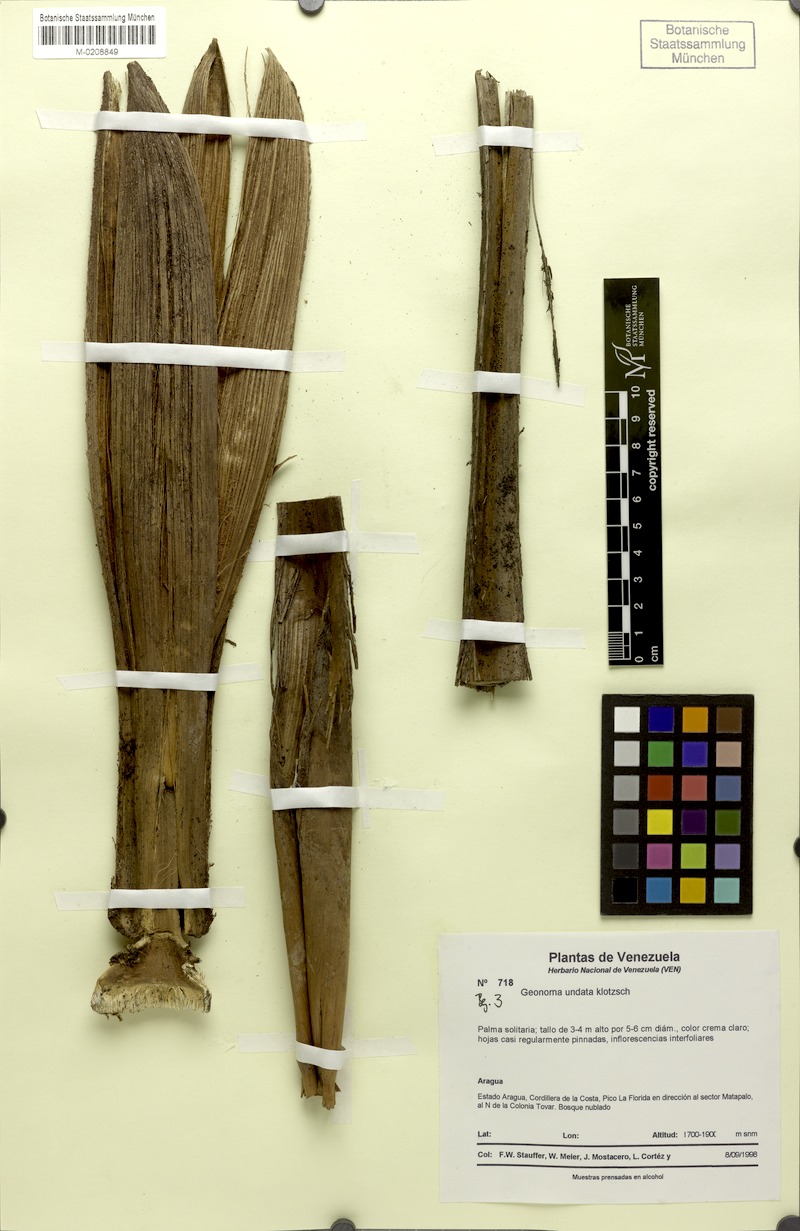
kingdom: Plantae
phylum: Tracheophyta
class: Liliopsida
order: Arecales
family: Arecaceae
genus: Geonoma
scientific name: Geonoma undata
